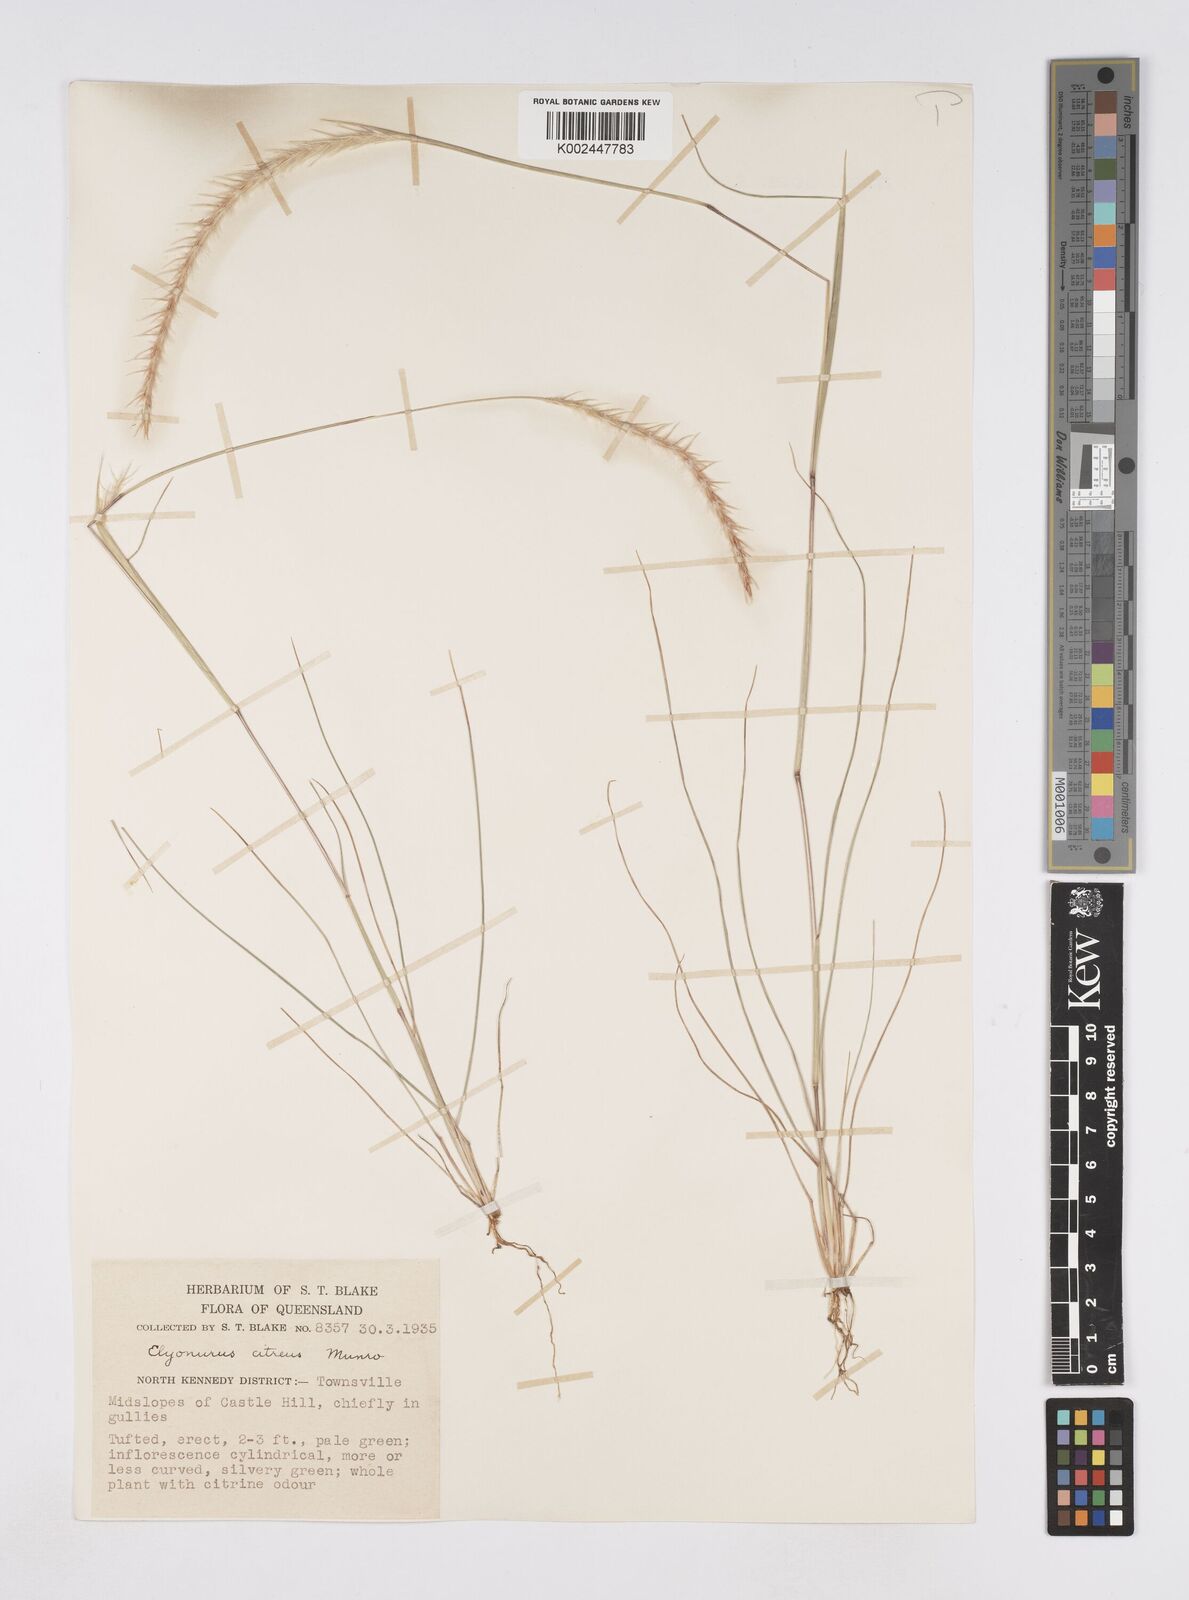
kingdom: Plantae
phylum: Tracheophyta
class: Liliopsida
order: Poales
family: Poaceae
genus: Elionurus
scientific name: Elionurus citreus
